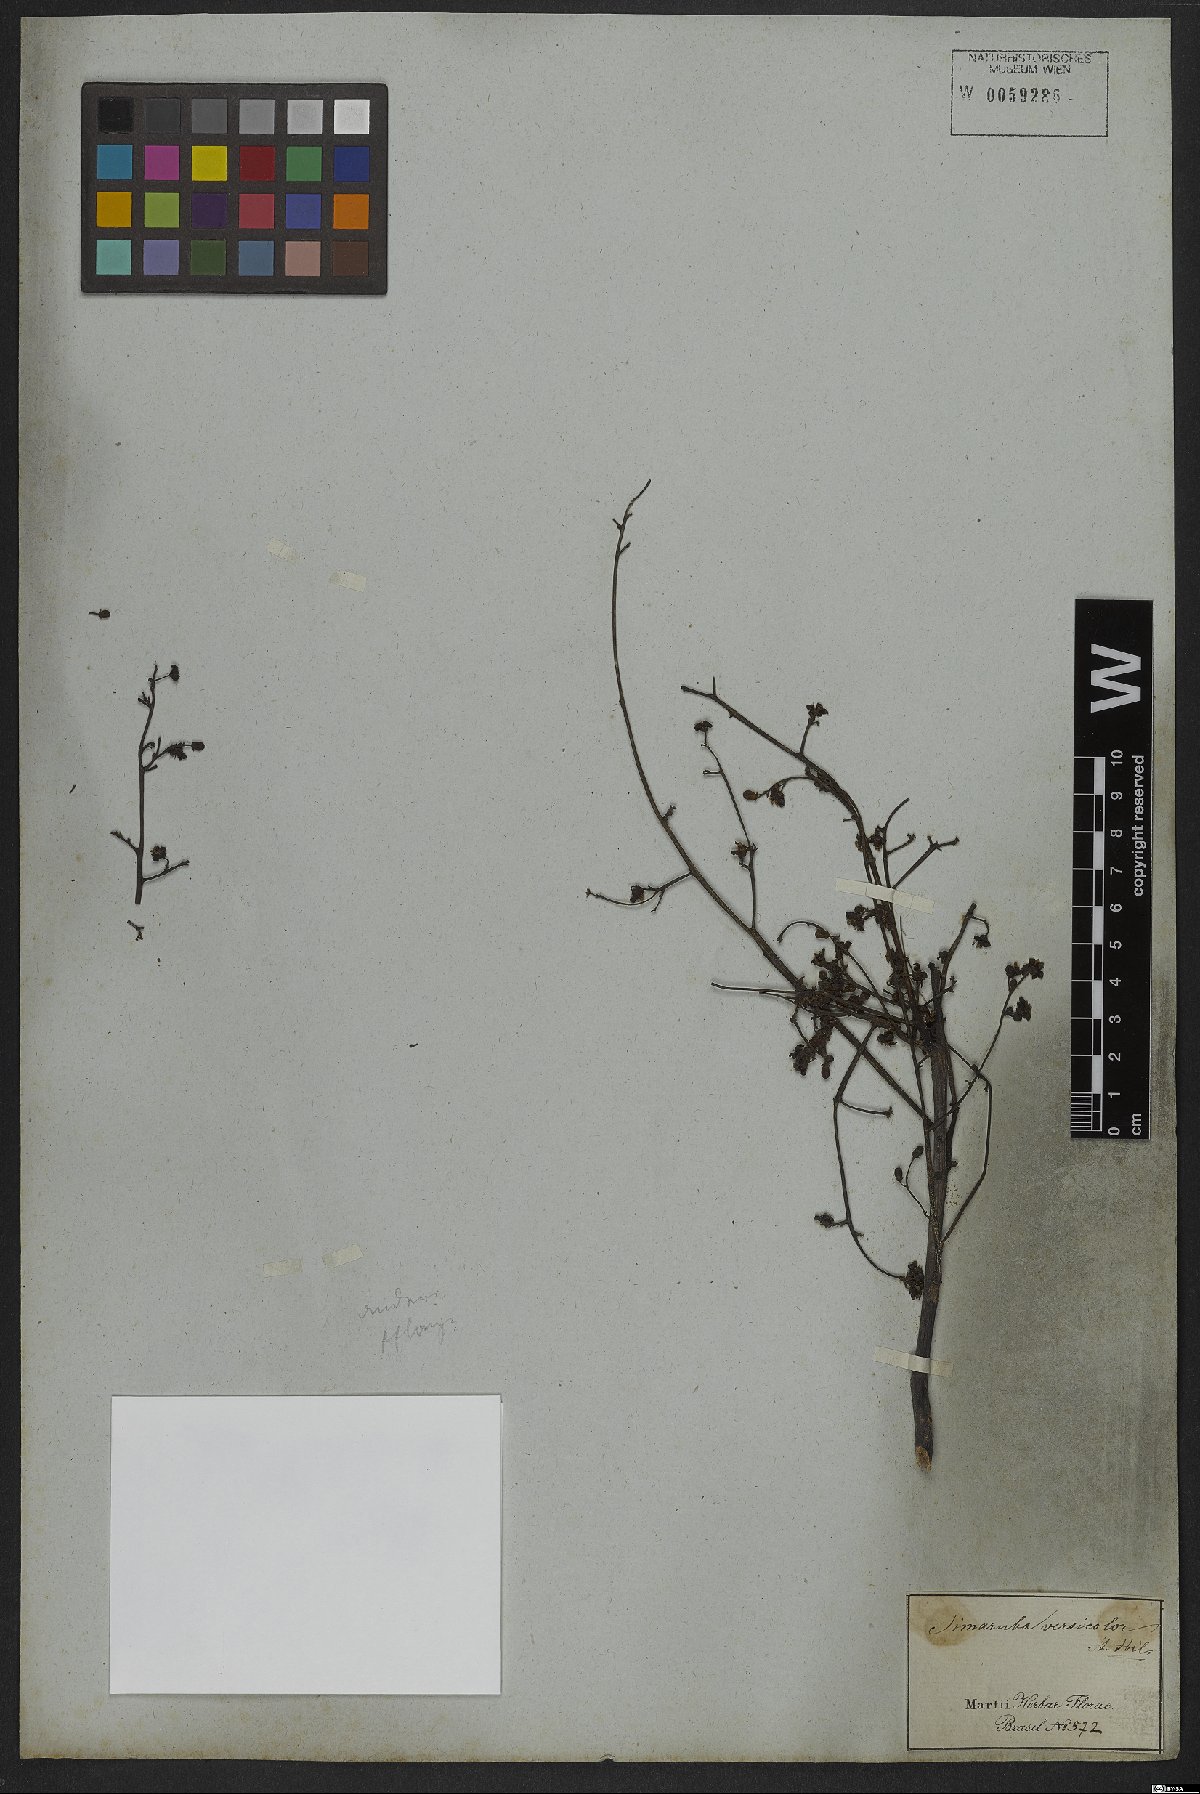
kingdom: Plantae
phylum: Tracheophyta
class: Magnoliopsida
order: Sapindales
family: Simaroubaceae
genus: Simarouba
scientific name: Simarouba versicolor
